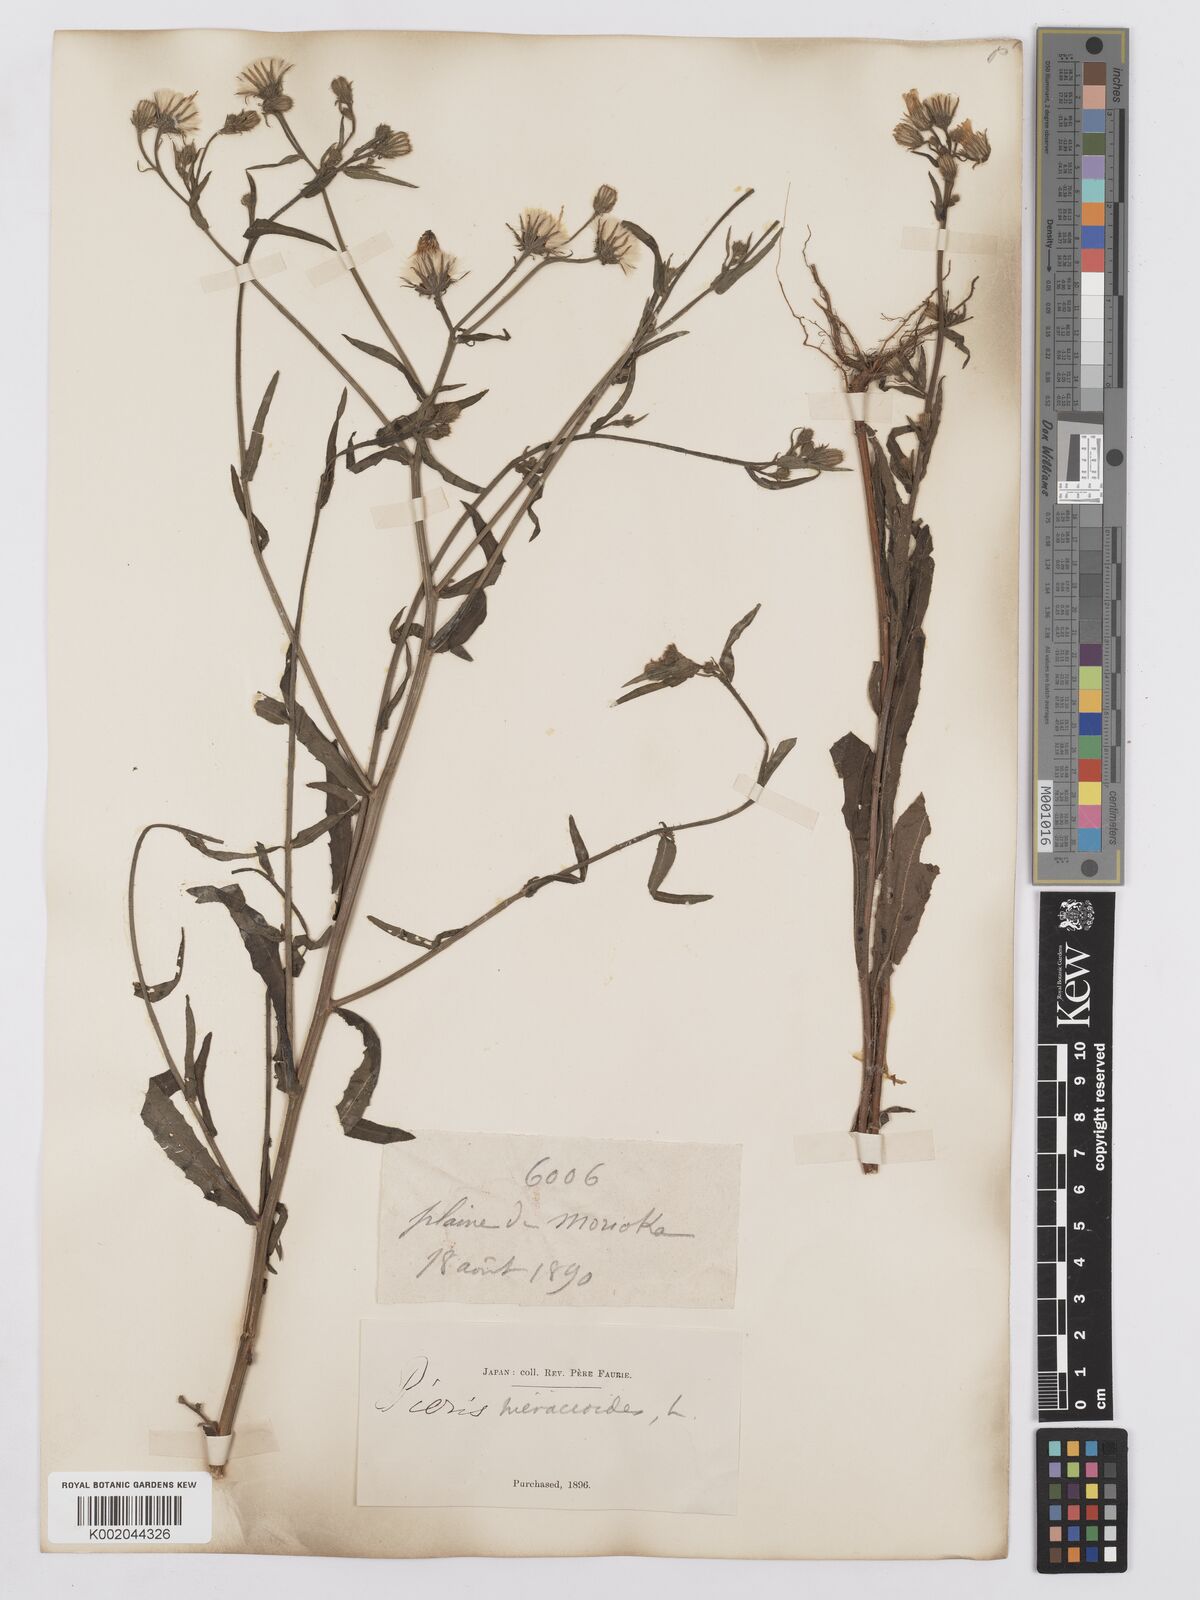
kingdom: Plantae
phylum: Tracheophyta
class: Magnoliopsida
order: Asterales
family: Asteraceae
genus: Picris
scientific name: Picris hieracioides
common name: Hawkweed oxtongue
